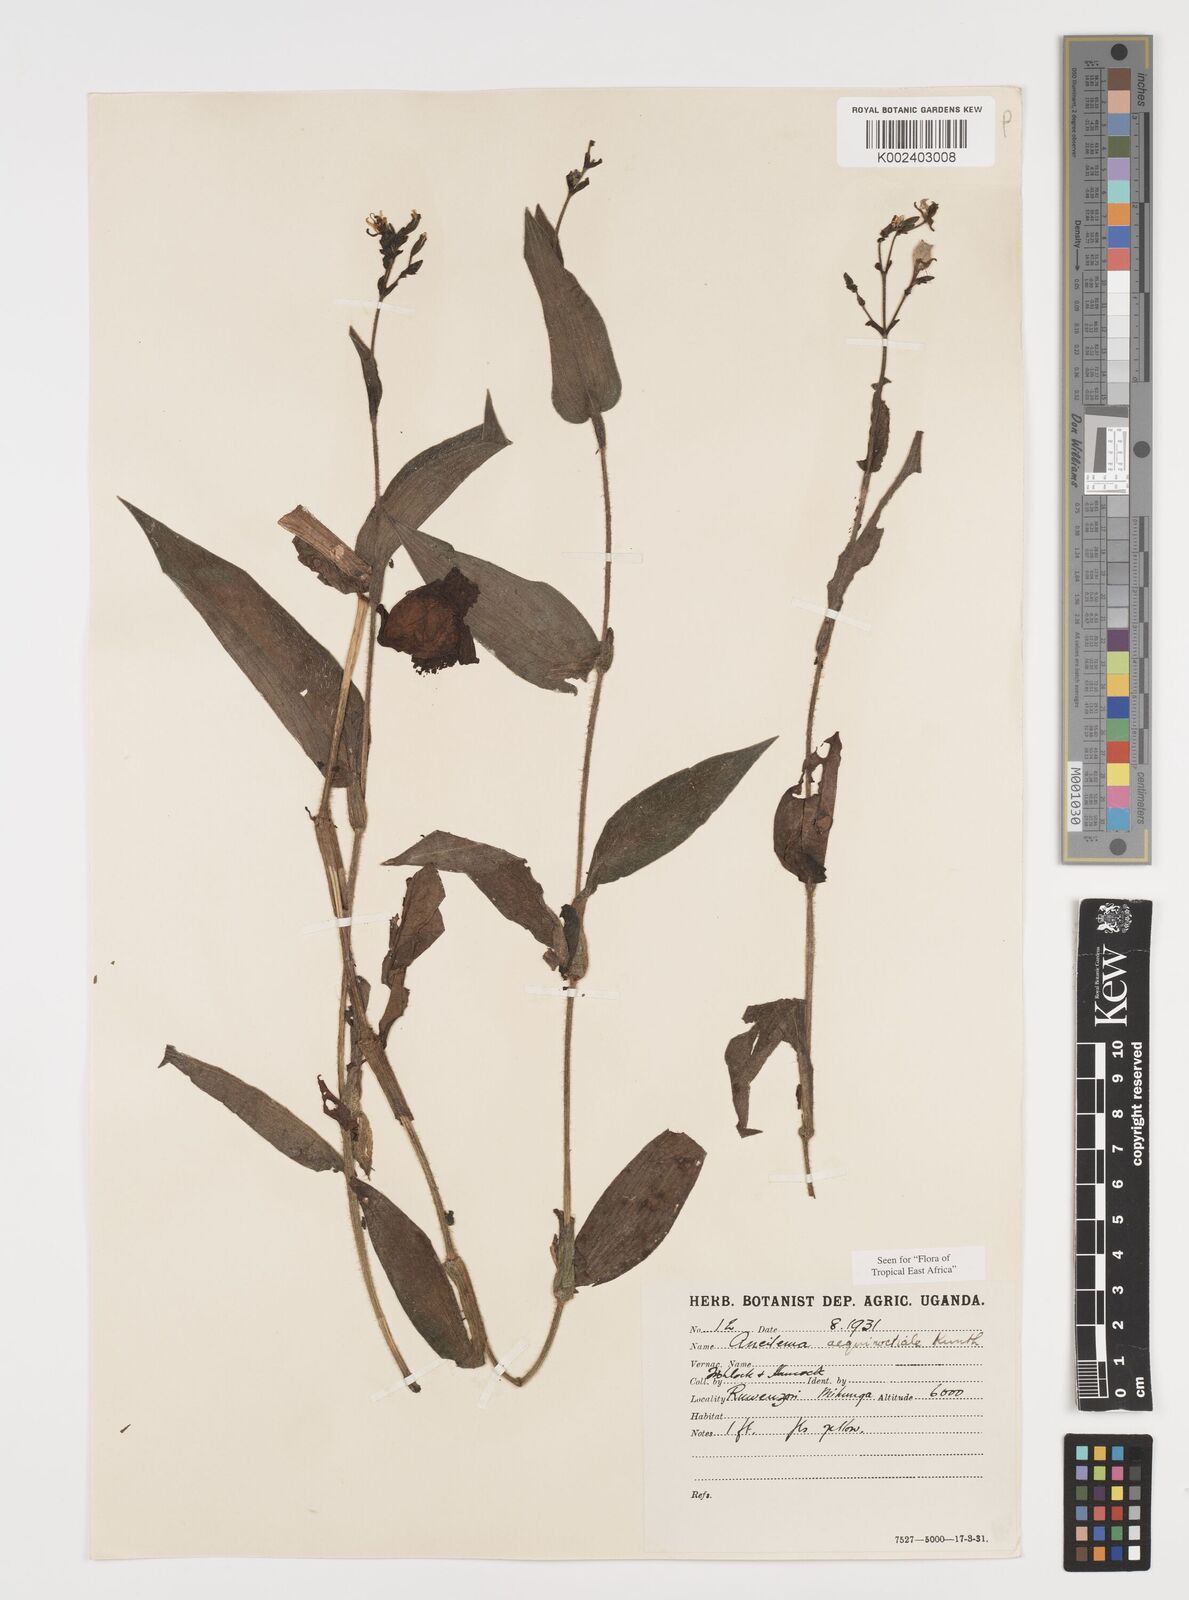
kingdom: Plantae
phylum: Tracheophyta
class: Liliopsida
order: Commelinales
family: Commelinaceae
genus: Aneilema
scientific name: Aneilema aequinoctiale
